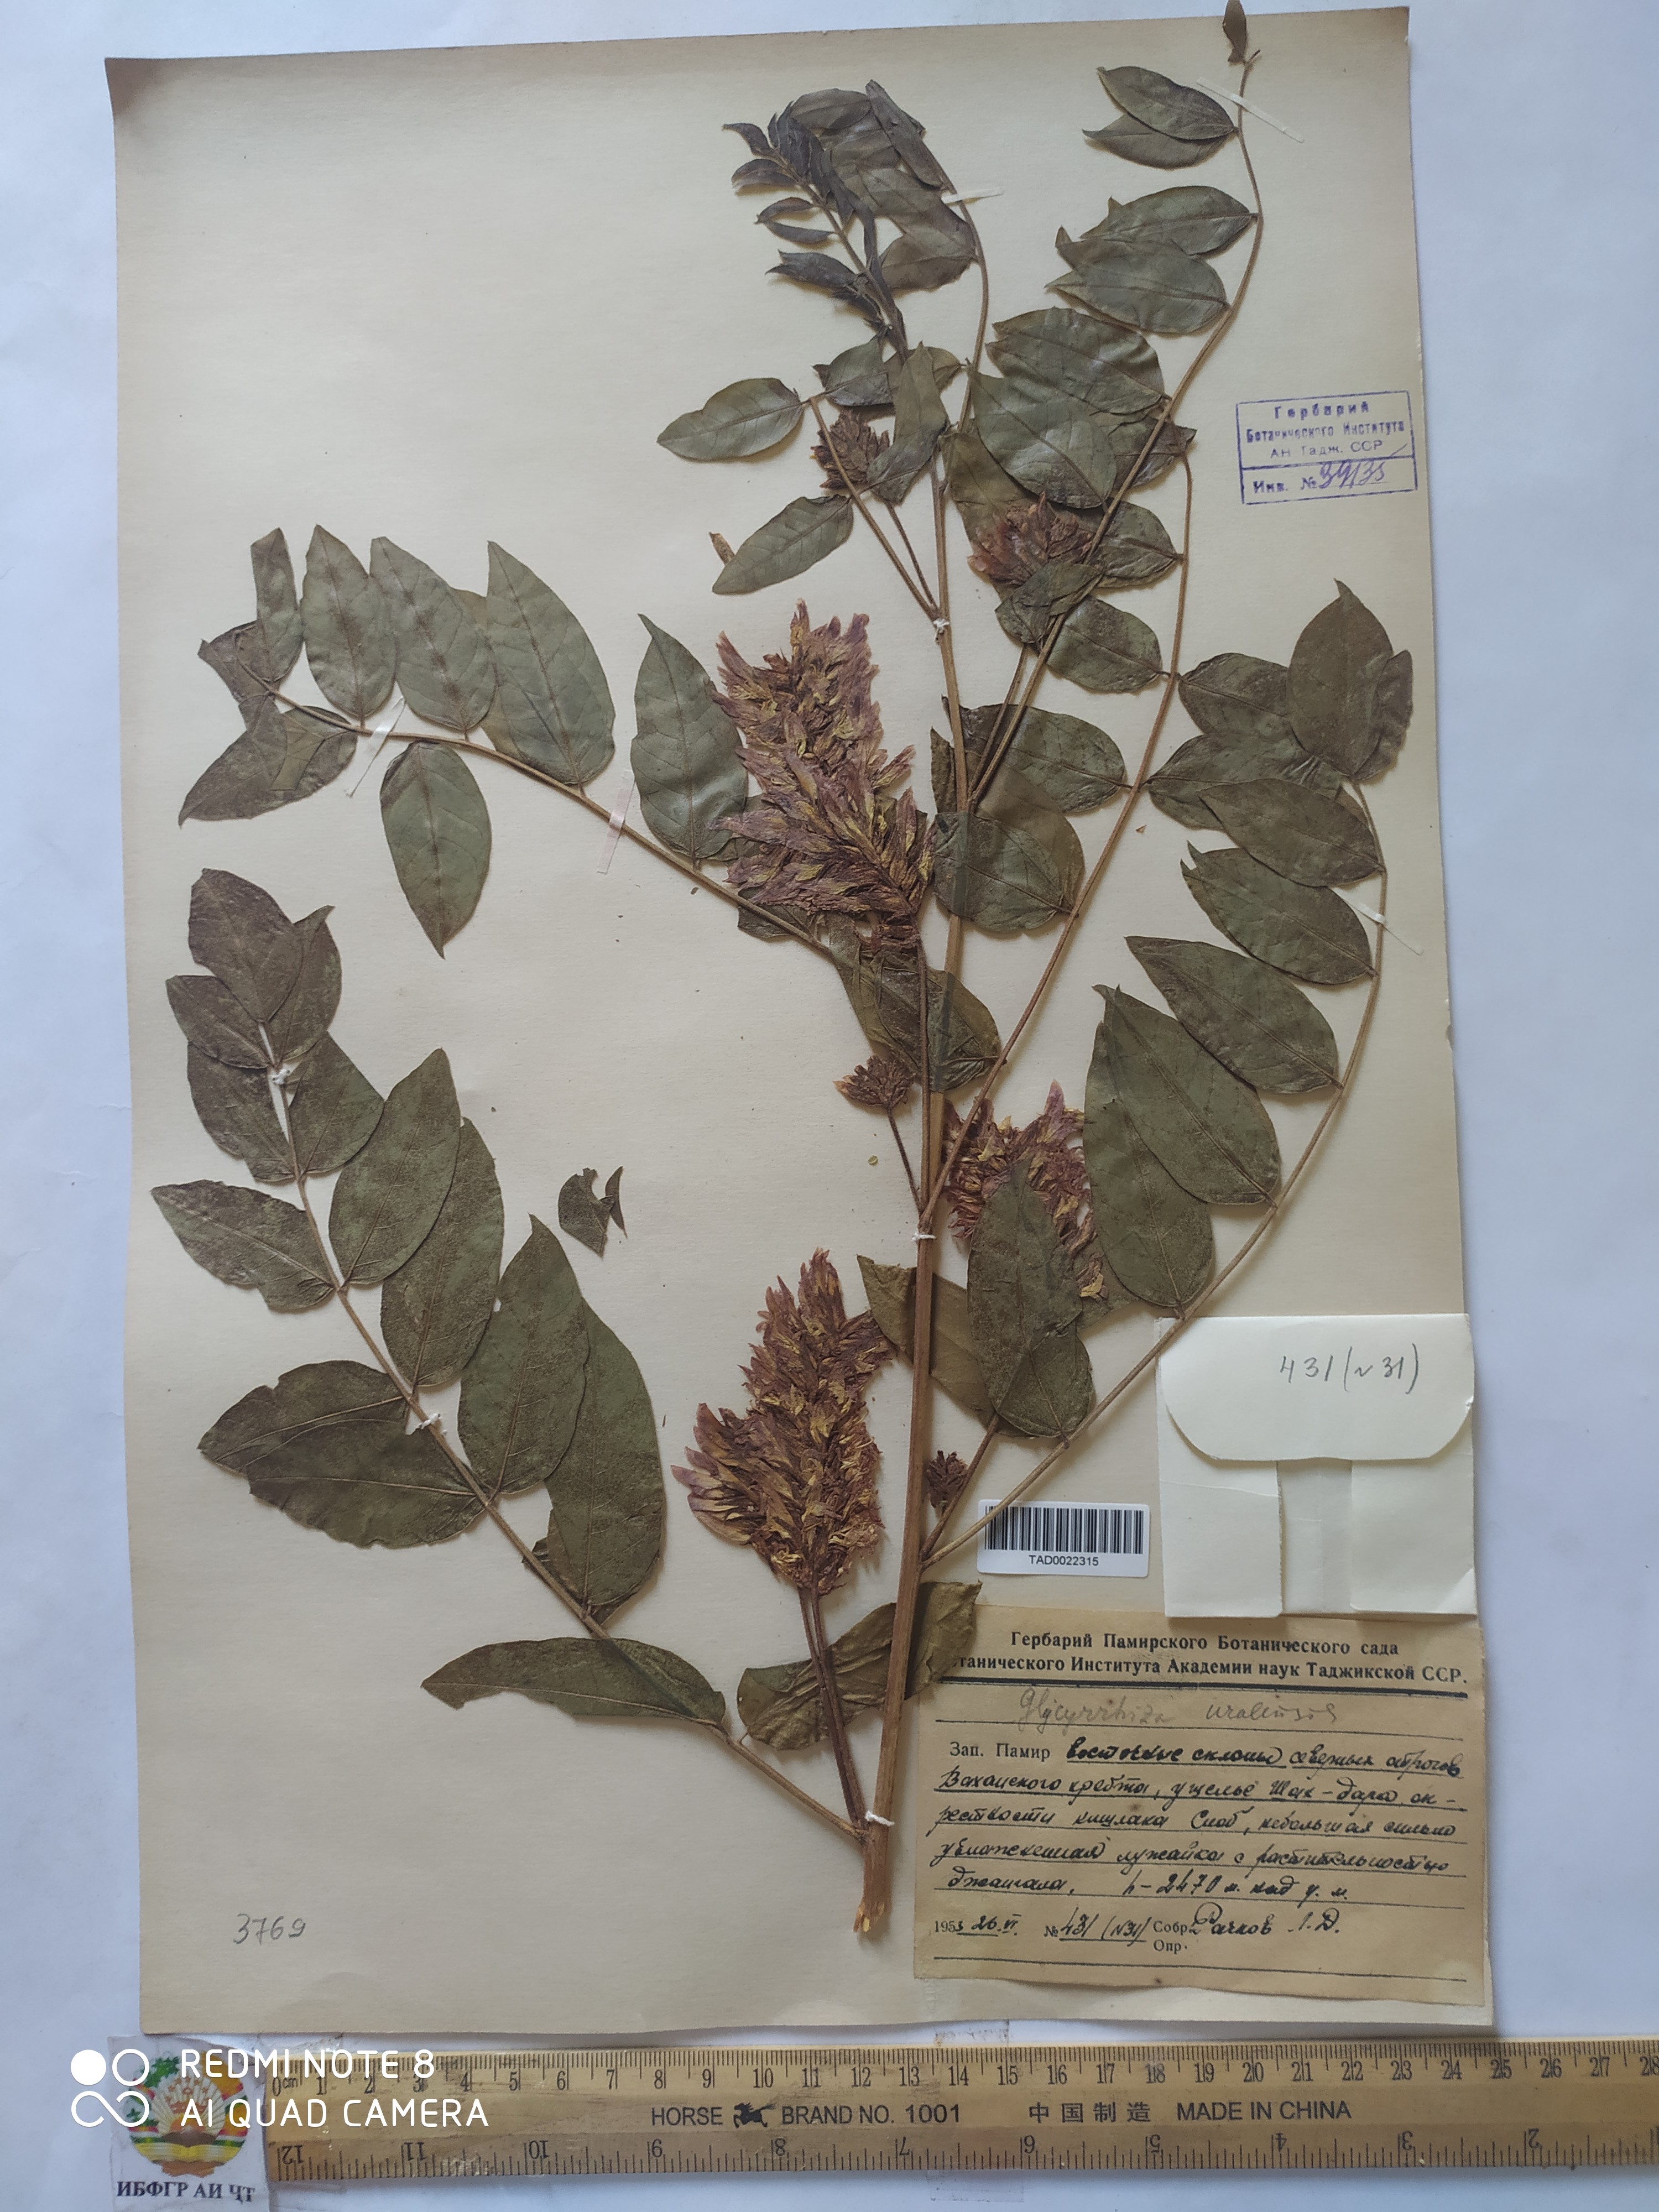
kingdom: Plantae
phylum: Tracheophyta
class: Magnoliopsida
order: Fabales
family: Fabaceae
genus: Glycyrrhiza
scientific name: Glycyrrhiza uralensis
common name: Chinese licorice
